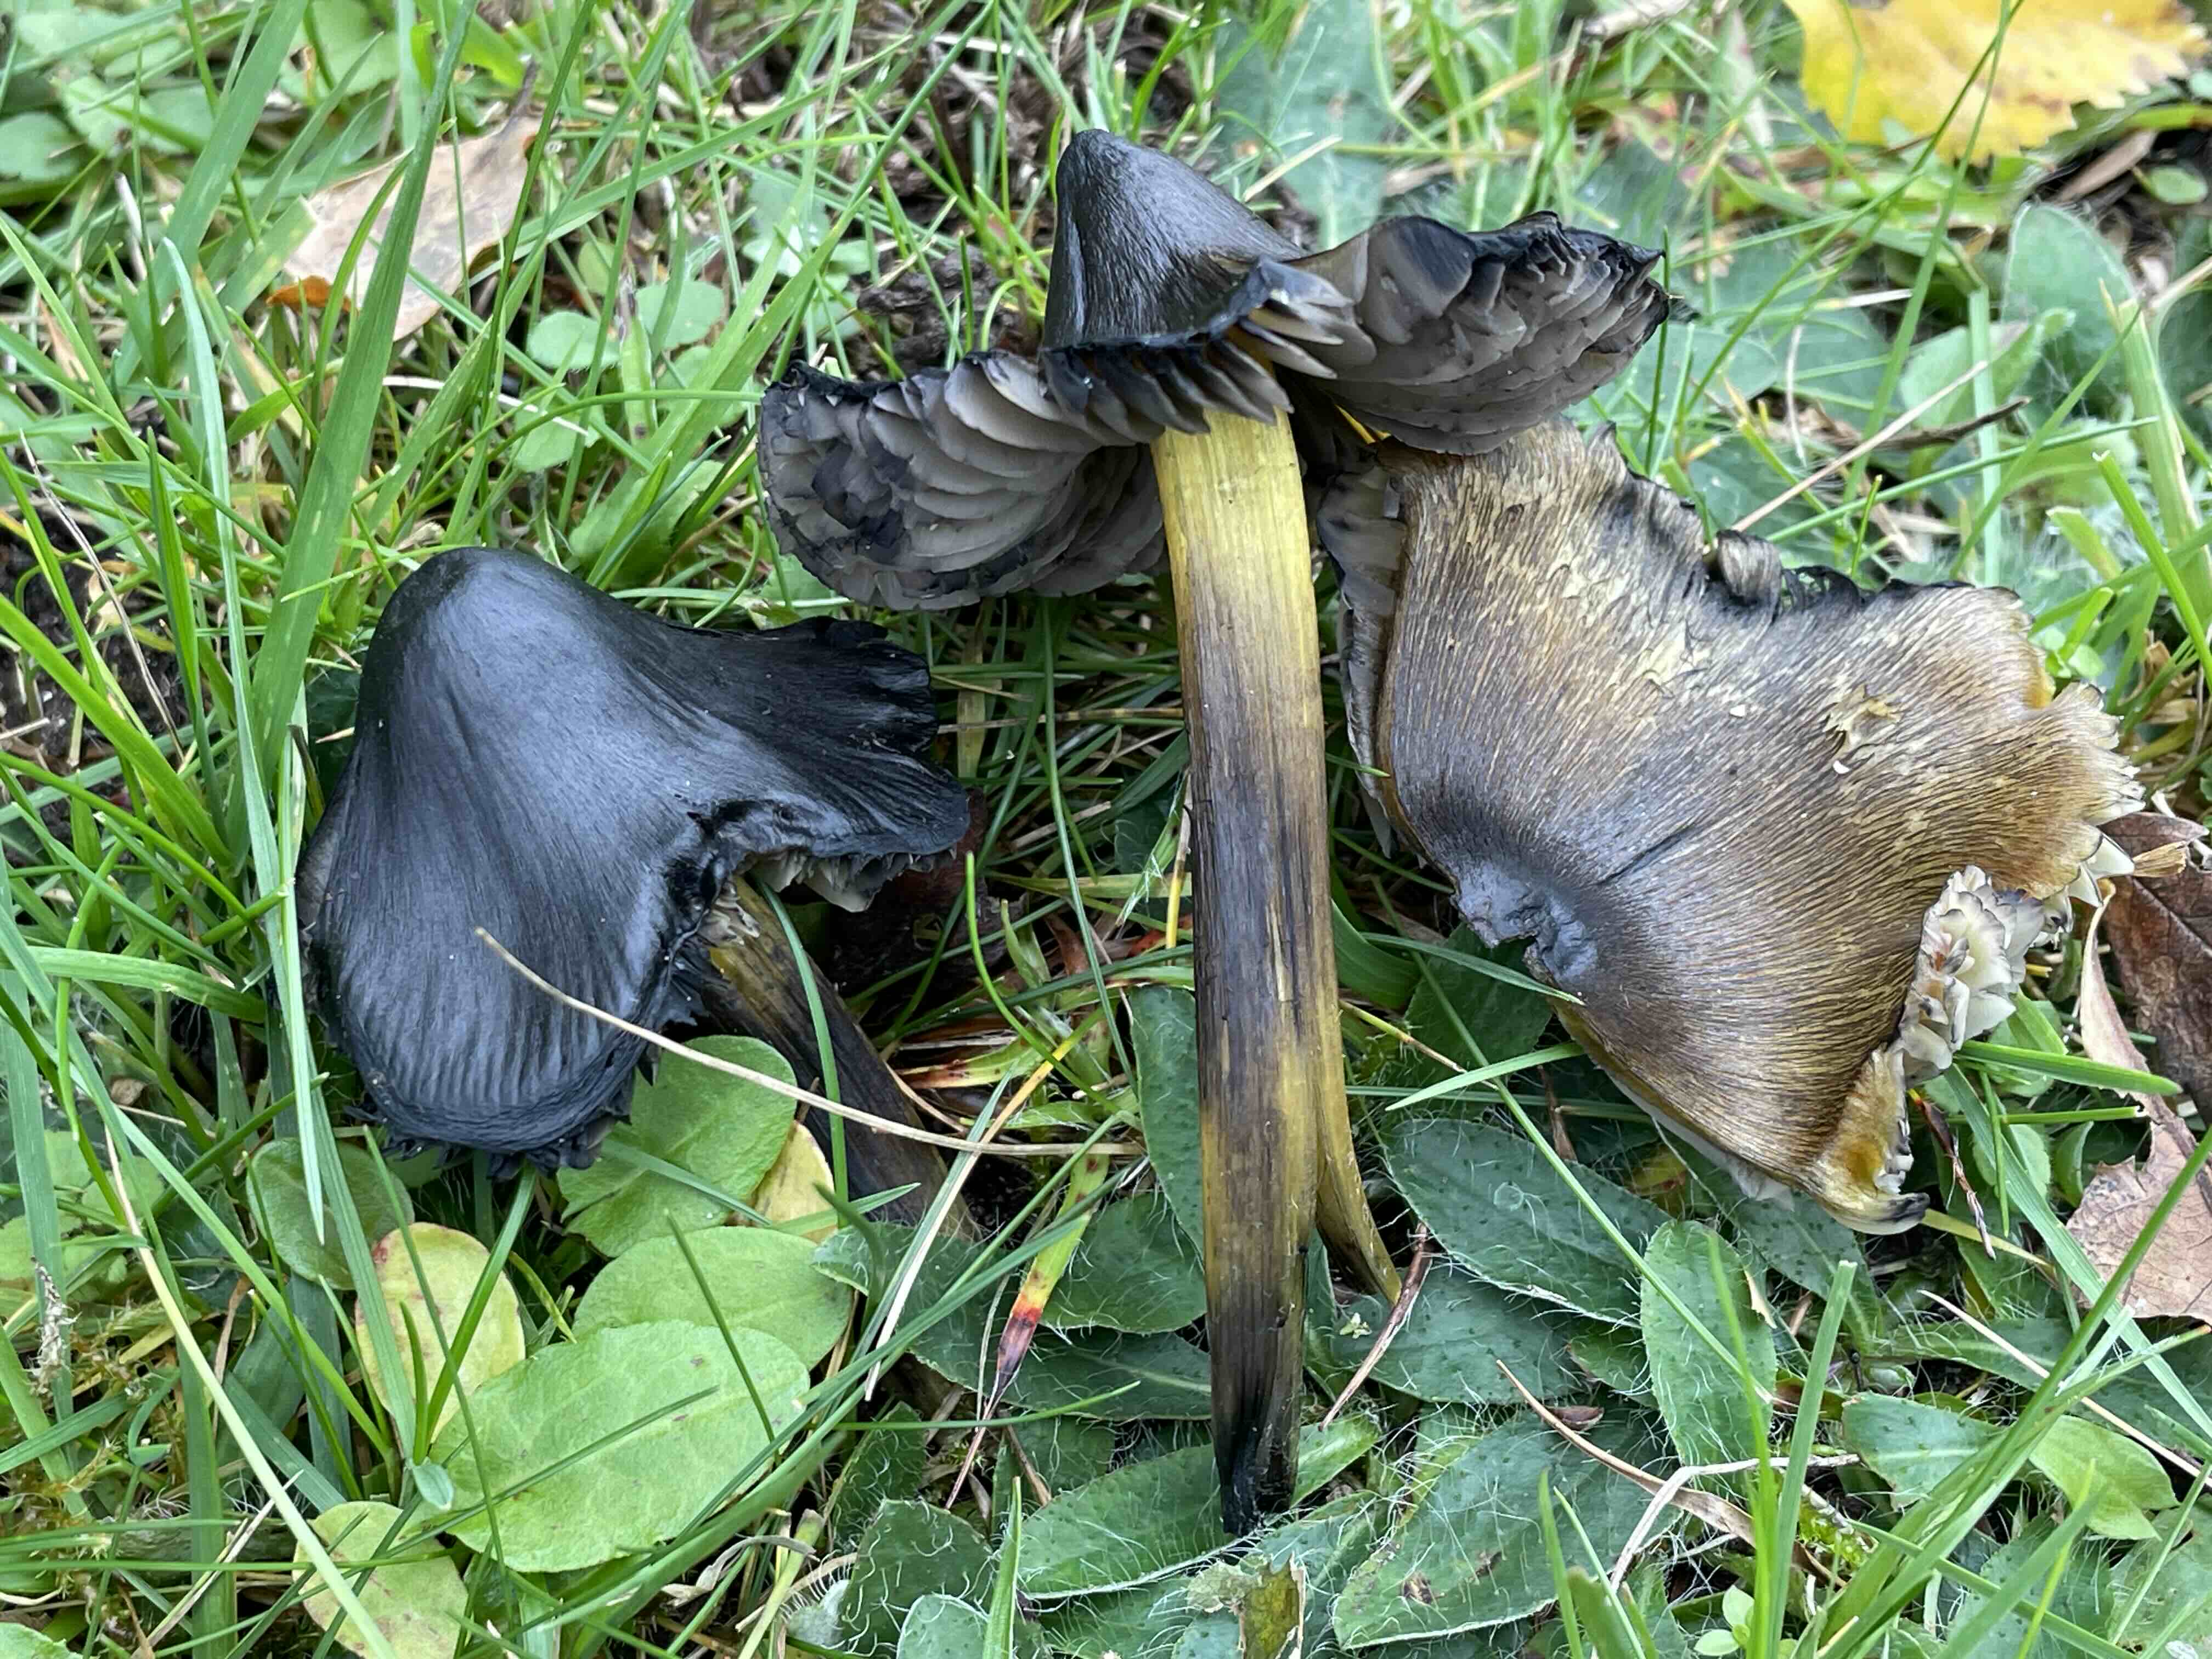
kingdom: Fungi
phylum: Basidiomycota
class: Agaricomycetes
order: Agaricales
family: Hygrophoraceae
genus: Hygrocybe
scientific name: Hygrocybe conica
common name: kegle-vokshat
